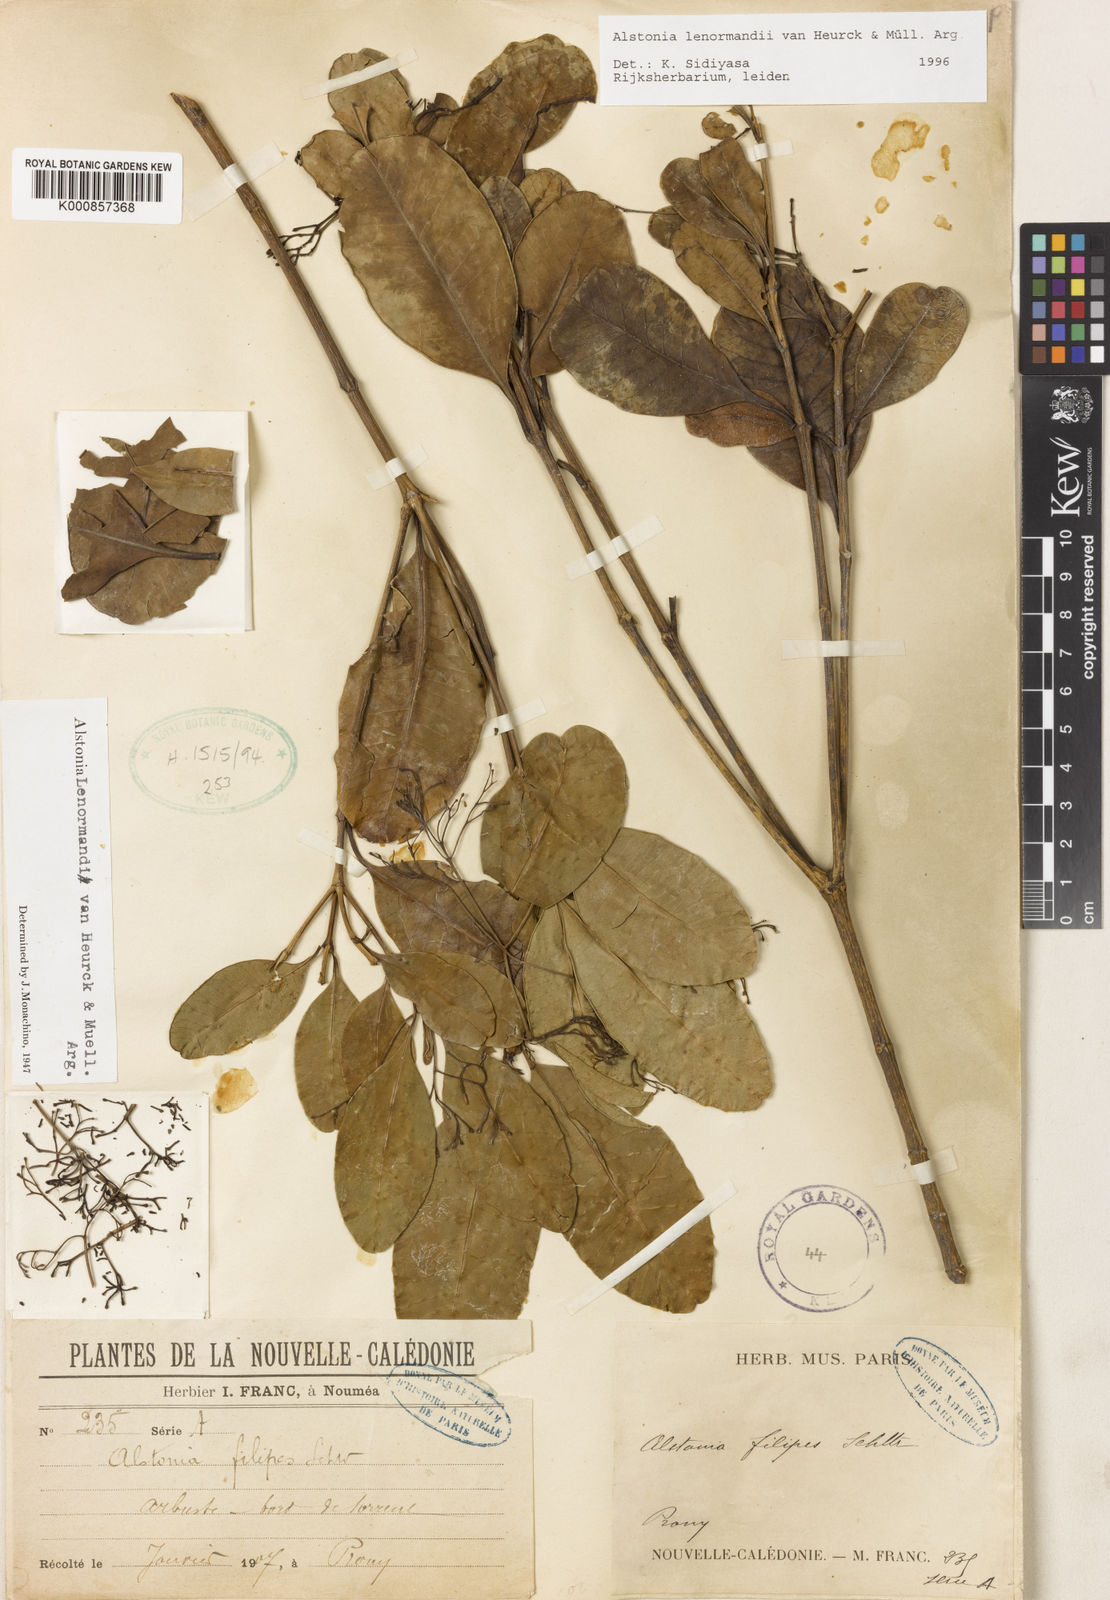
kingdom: Plantae
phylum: Tracheophyta
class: Magnoliopsida
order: Gentianales
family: Apocynaceae
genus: Alstonia
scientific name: Alstonia
